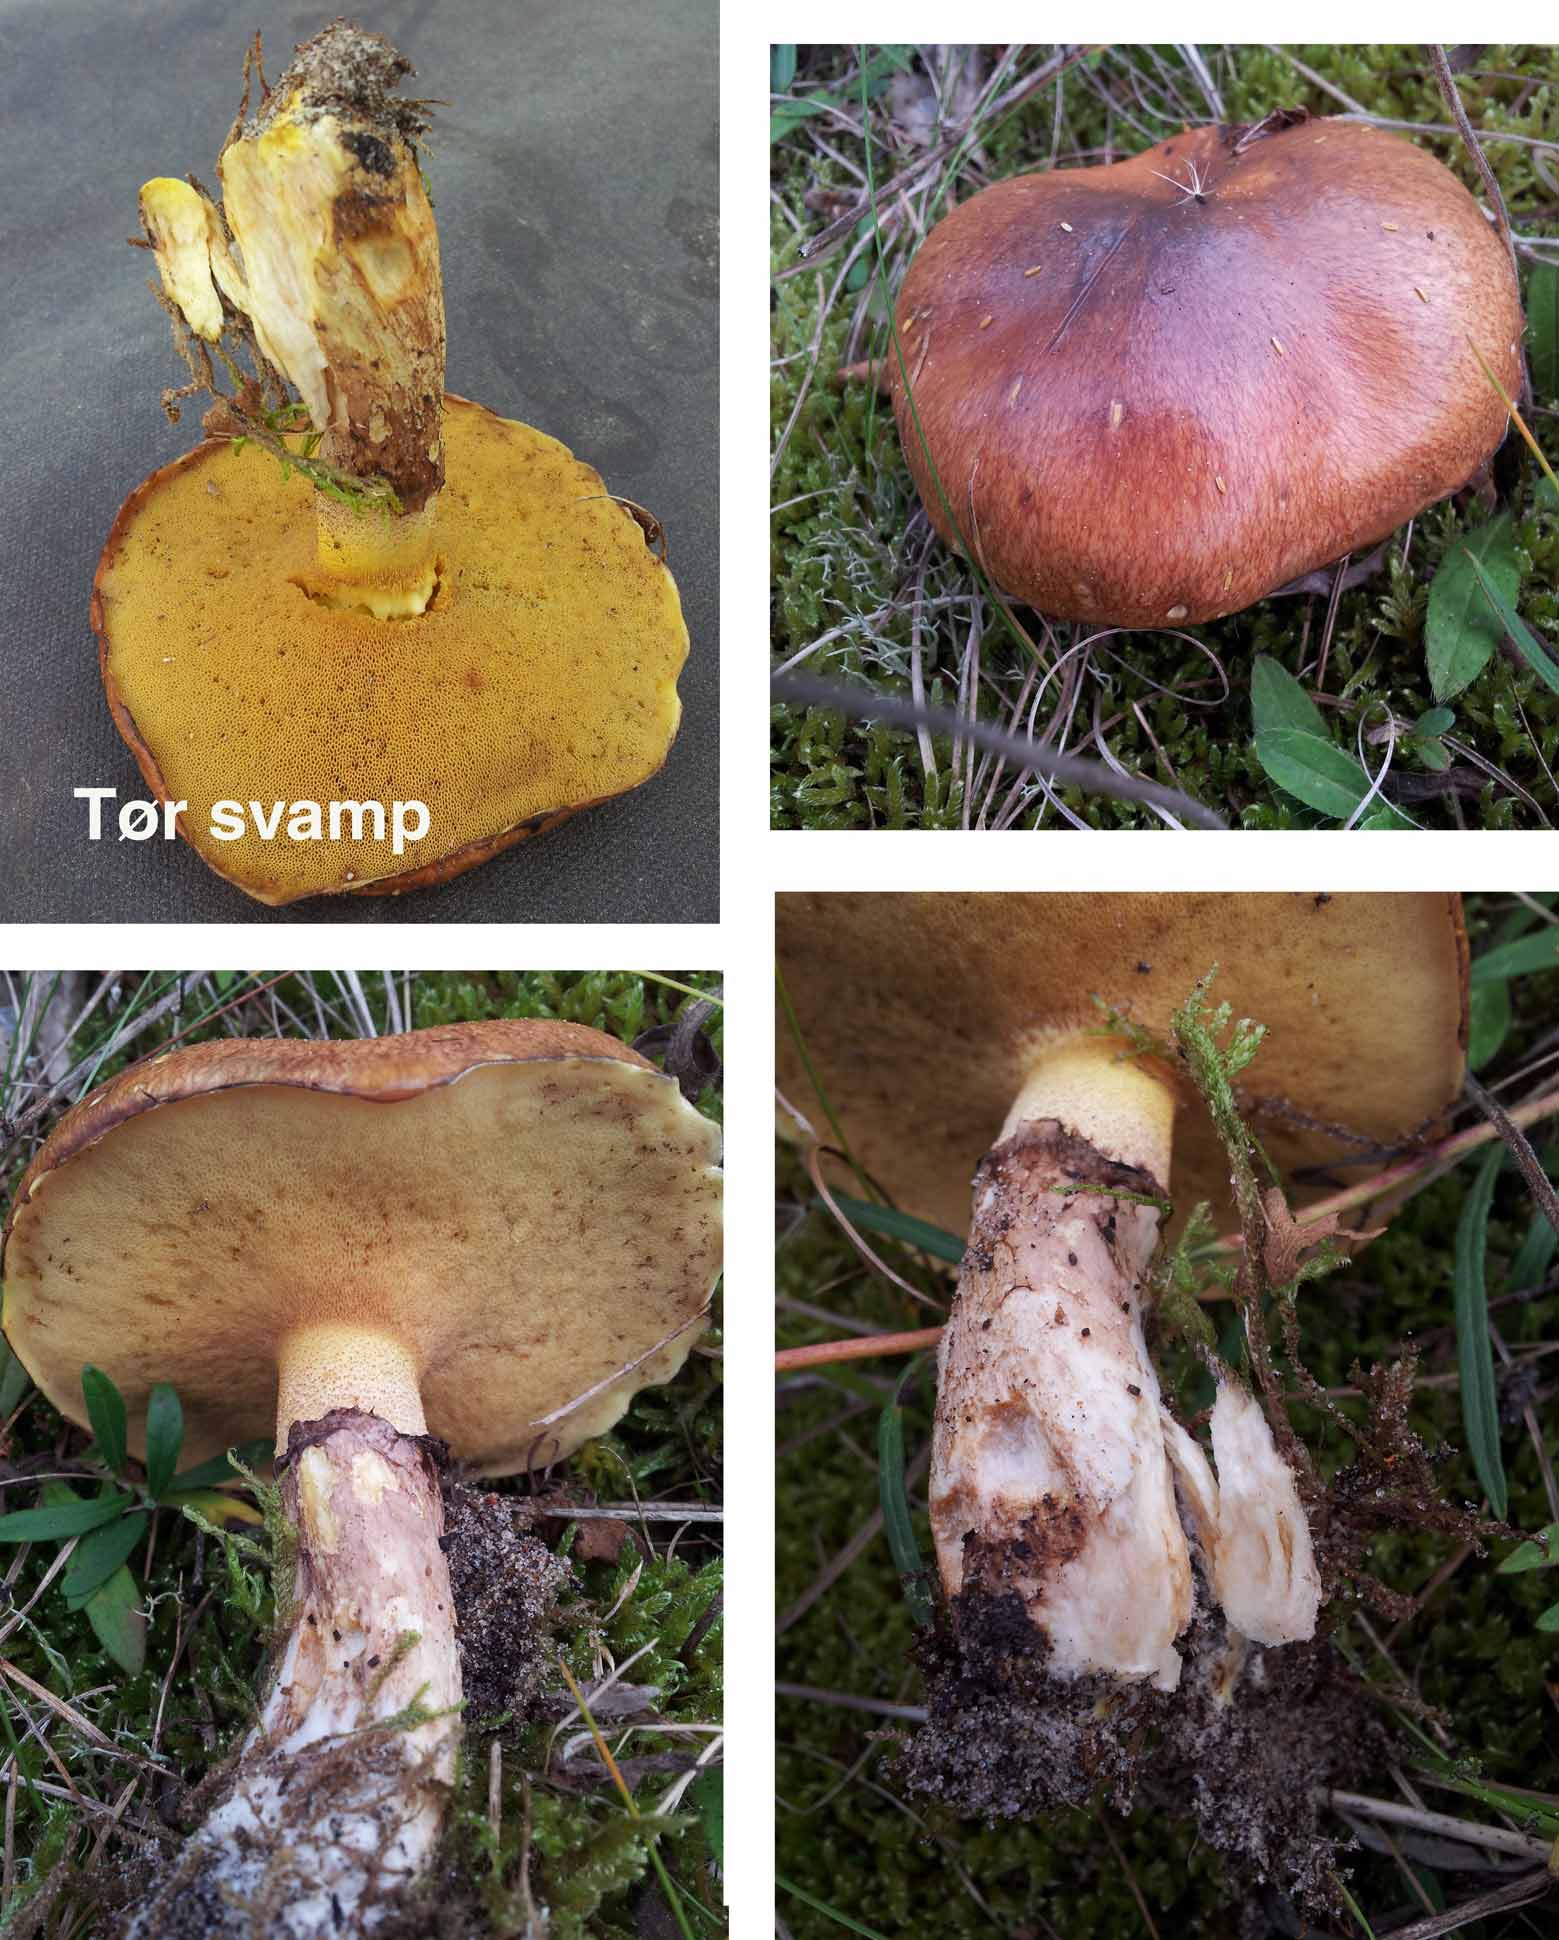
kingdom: Fungi
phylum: Basidiomycota
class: Agaricomycetes
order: Boletales
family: Suillaceae
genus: Suillus
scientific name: Suillus luteus
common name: brungul slimrørhat
